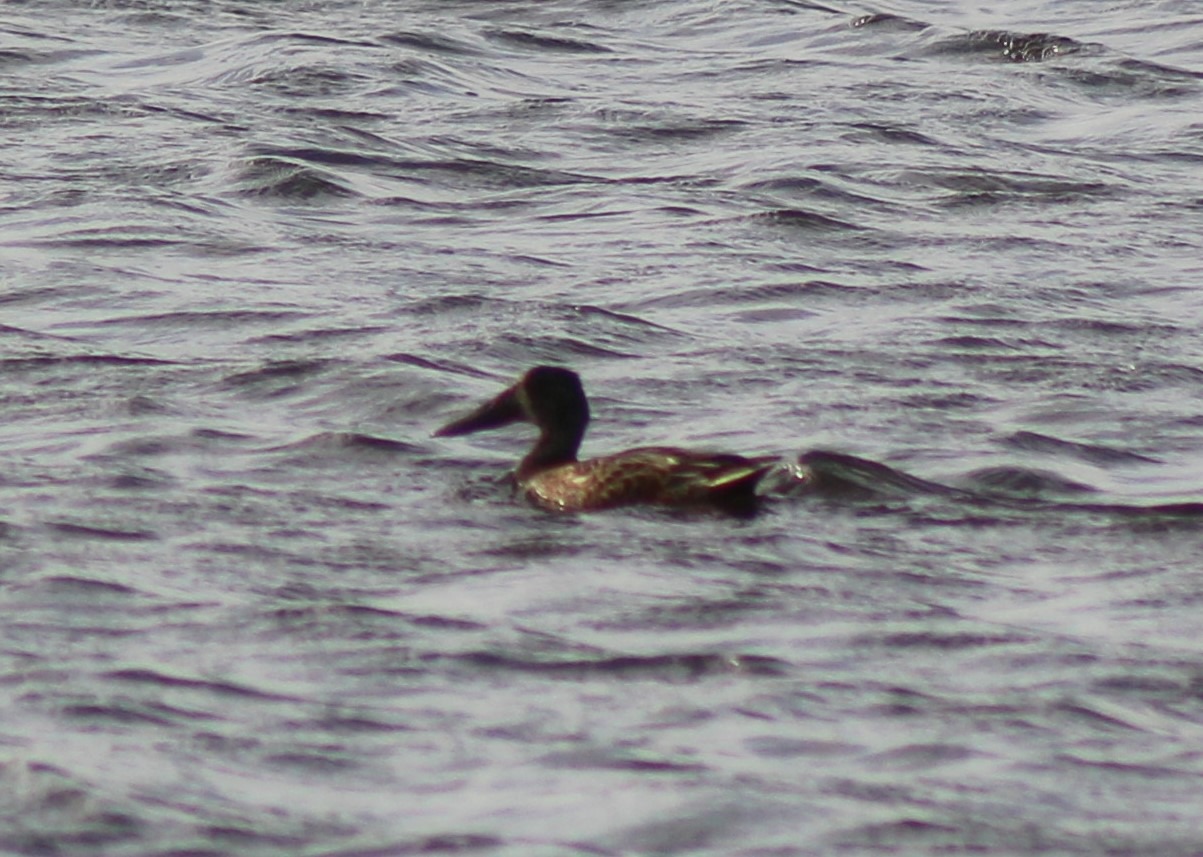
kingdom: Animalia
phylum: Chordata
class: Aves
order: Anseriformes
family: Anatidae
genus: Spatula
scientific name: Spatula clypeata
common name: Skeand
